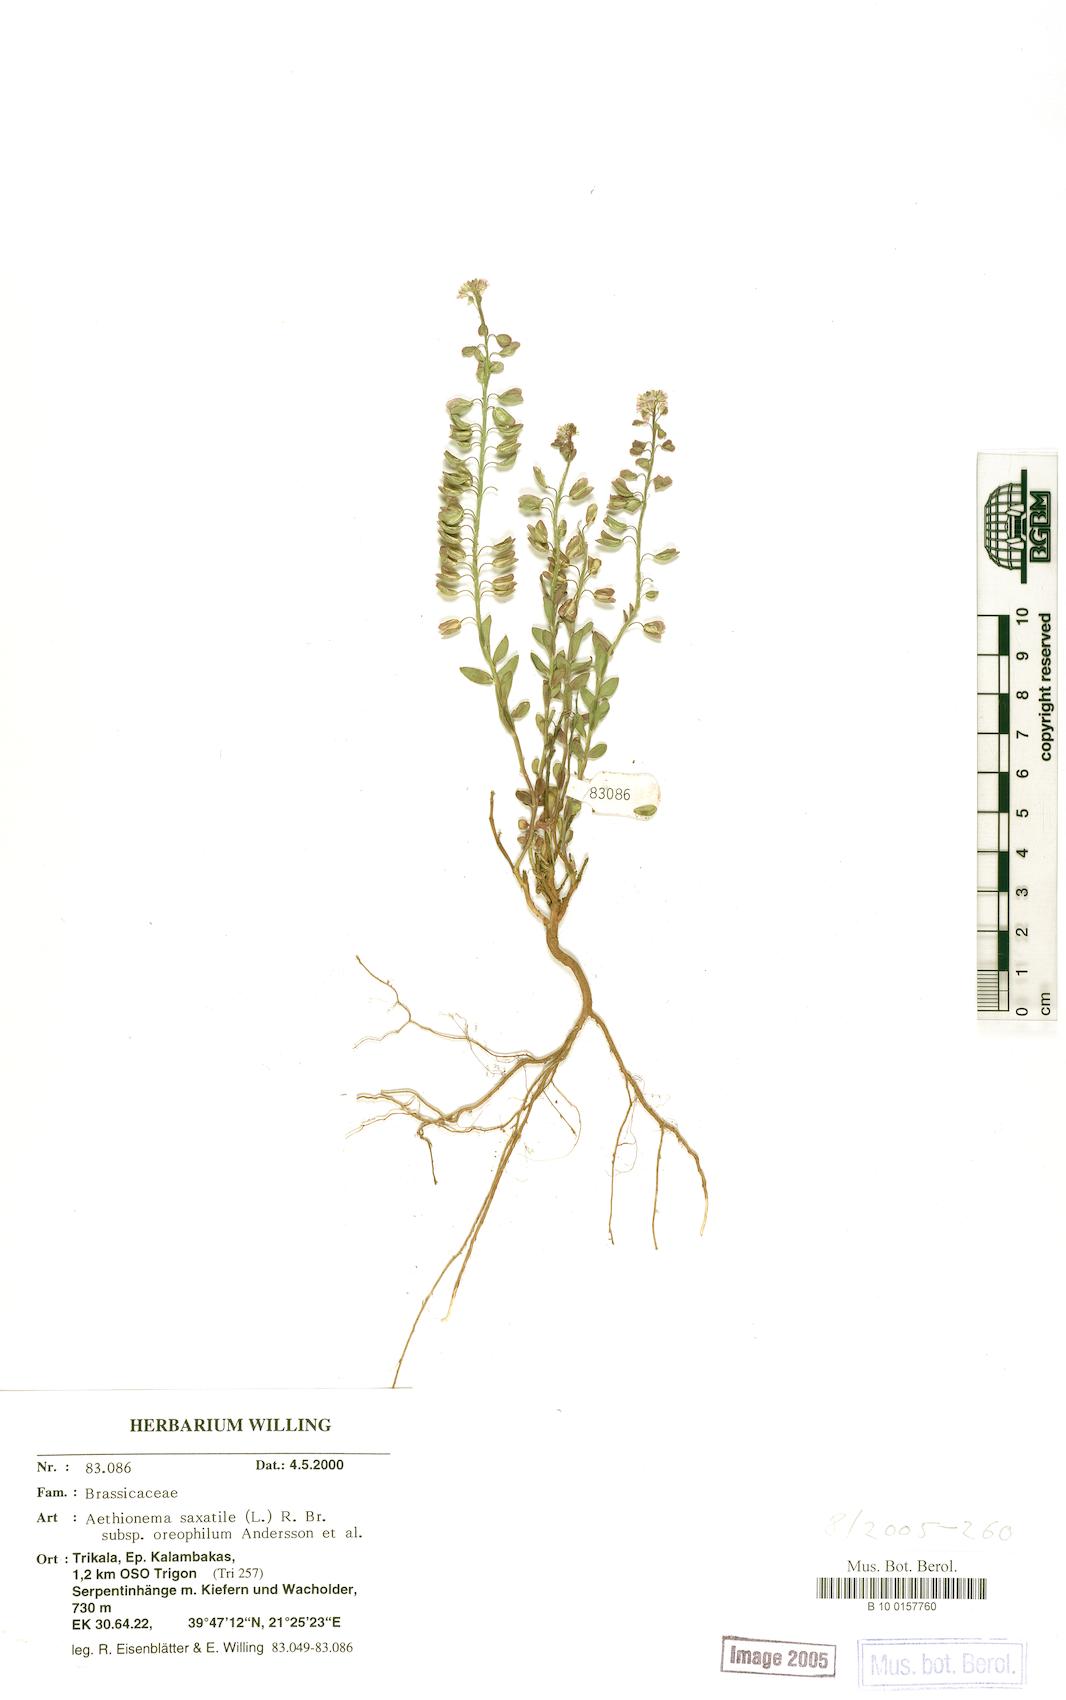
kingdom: Plantae
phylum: Tracheophyta
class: Magnoliopsida
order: Brassicales
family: Brassicaceae
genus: Aethionema
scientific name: Aethionema saxatile
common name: Burnt candytuft
